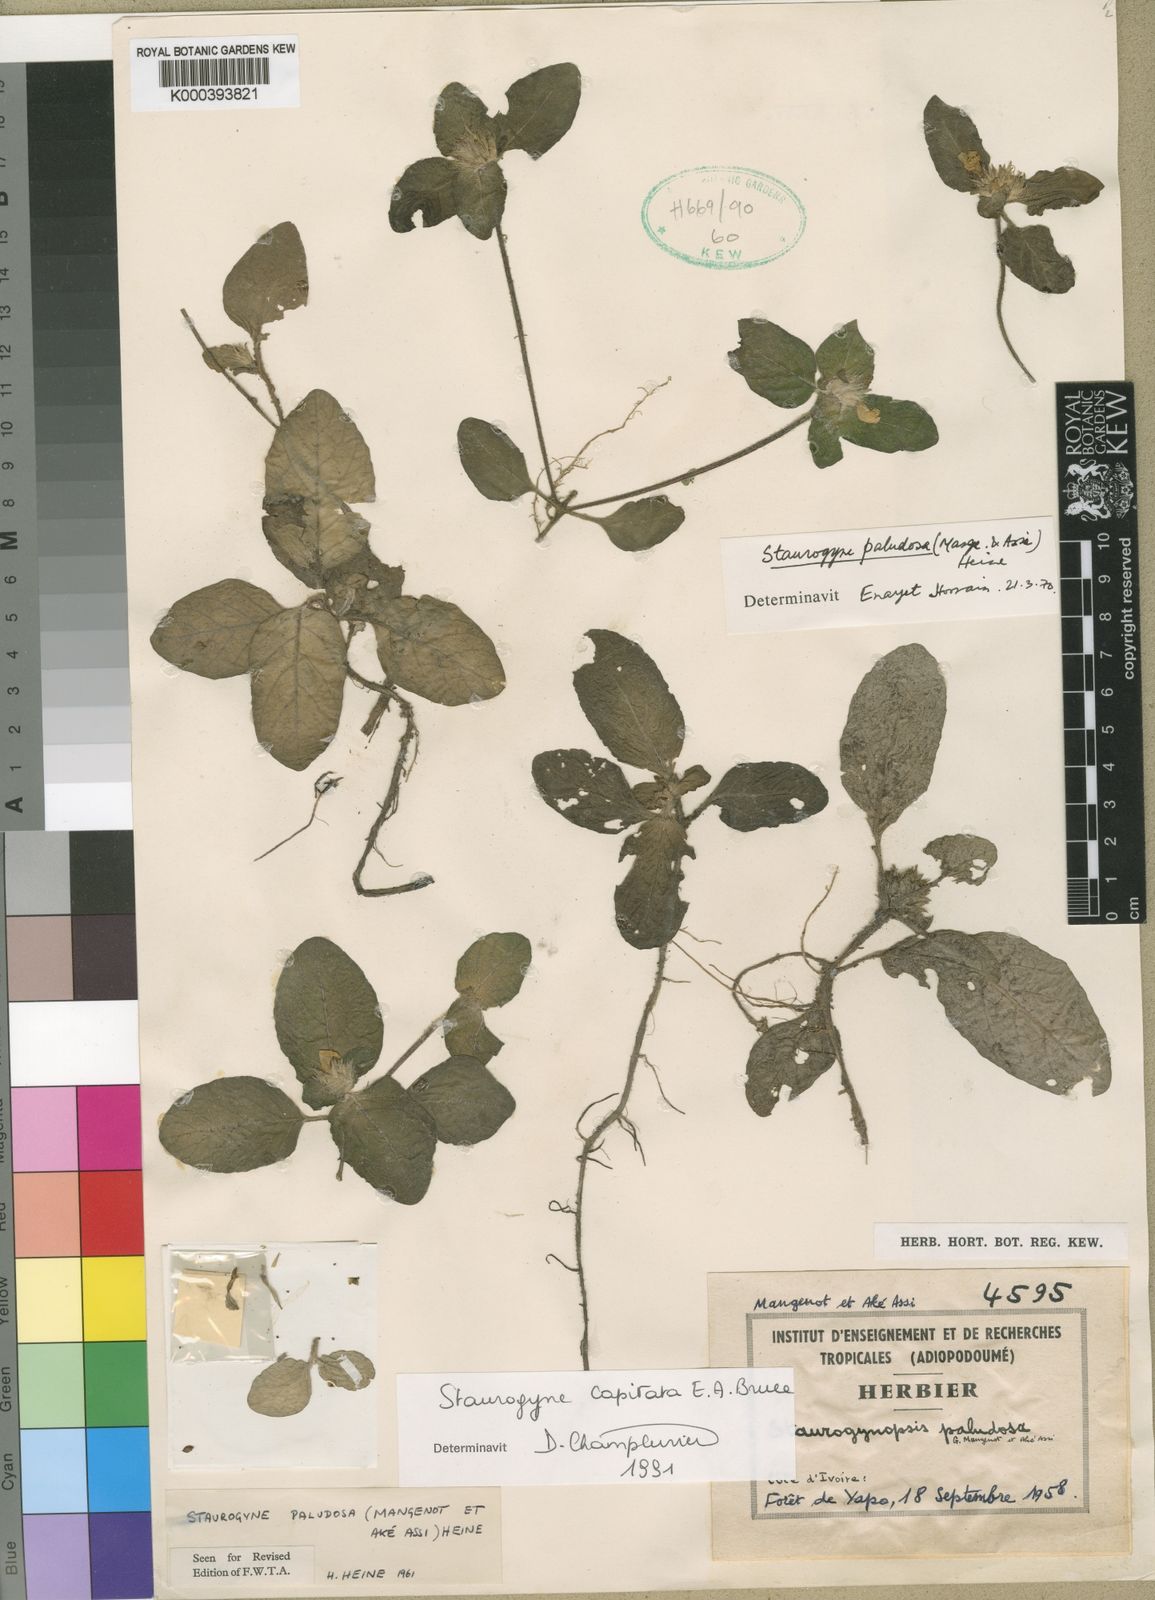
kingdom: Plantae
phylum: Tracheophyta
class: Magnoliopsida
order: Lamiales
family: Acanthaceae
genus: Staurogyne
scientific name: Staurogyne capitata
